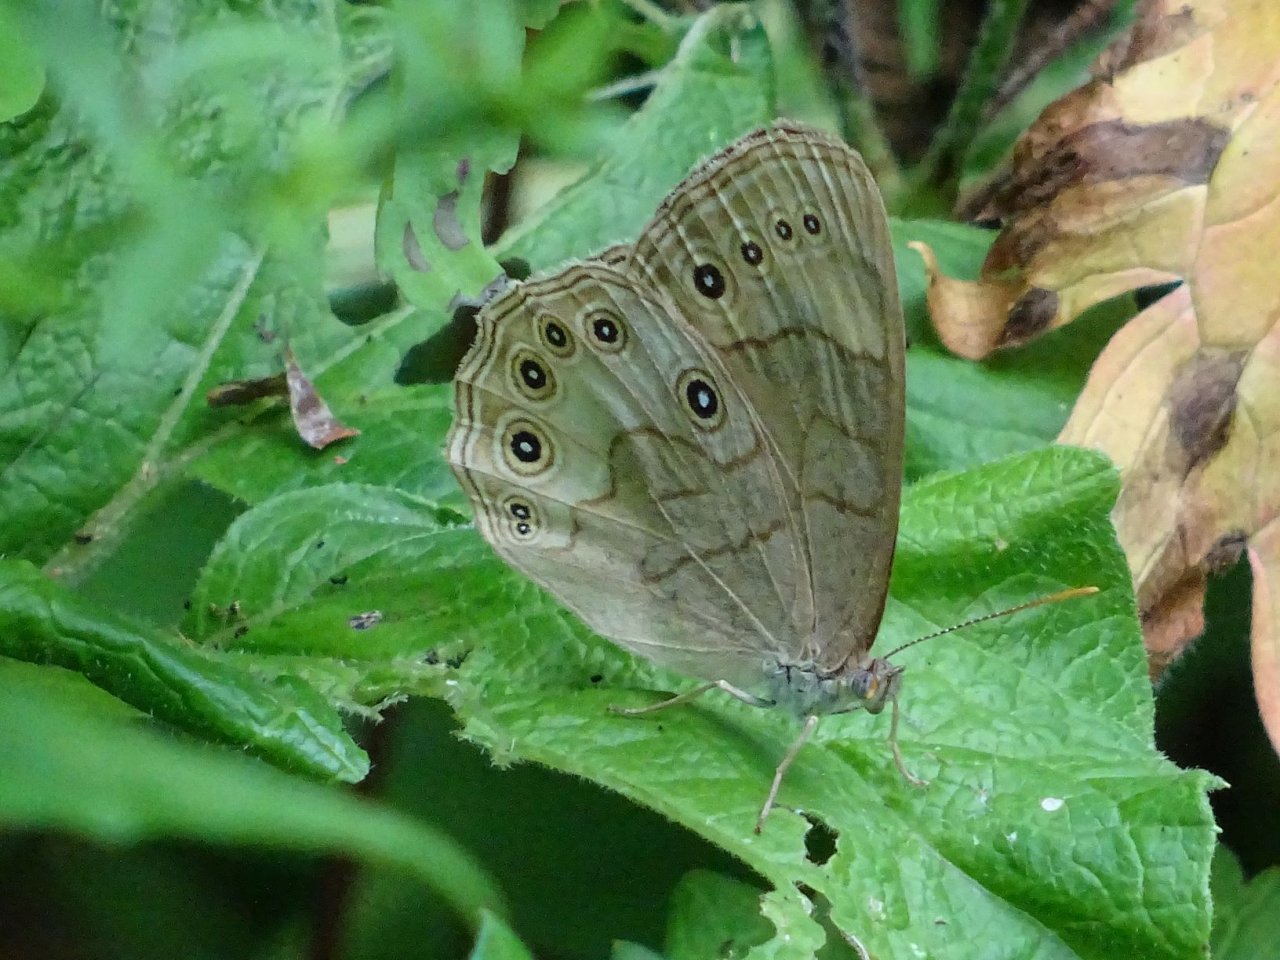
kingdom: Animalia
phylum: Arthropoda
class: Insecta
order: Lepidoptera
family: Nymphalidae
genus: Lethe
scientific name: Lethe eurydice
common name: Appalachian Eyed Brown
